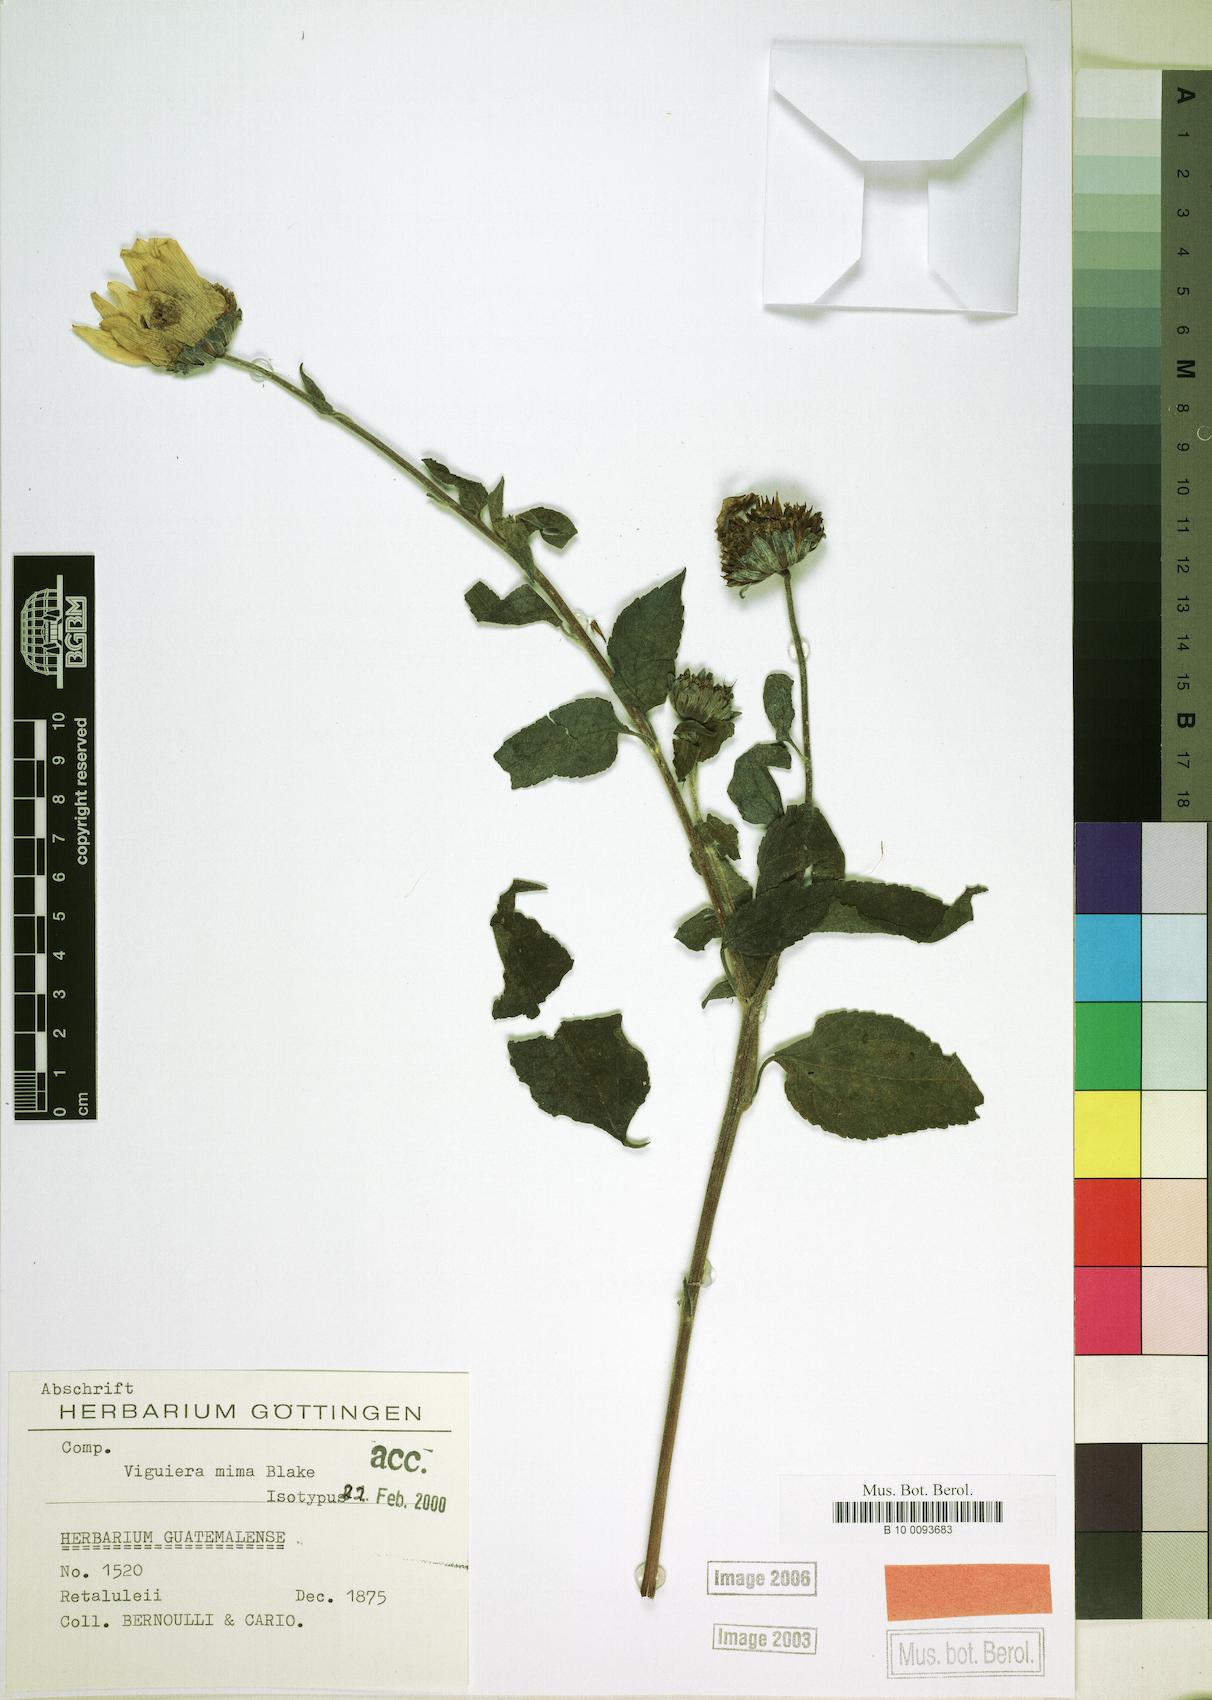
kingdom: Plantae
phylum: Tracheophyta
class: Magnoliopsida
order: Asterales
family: Asteraceae
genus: Viguiera
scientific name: Viguiera mima
